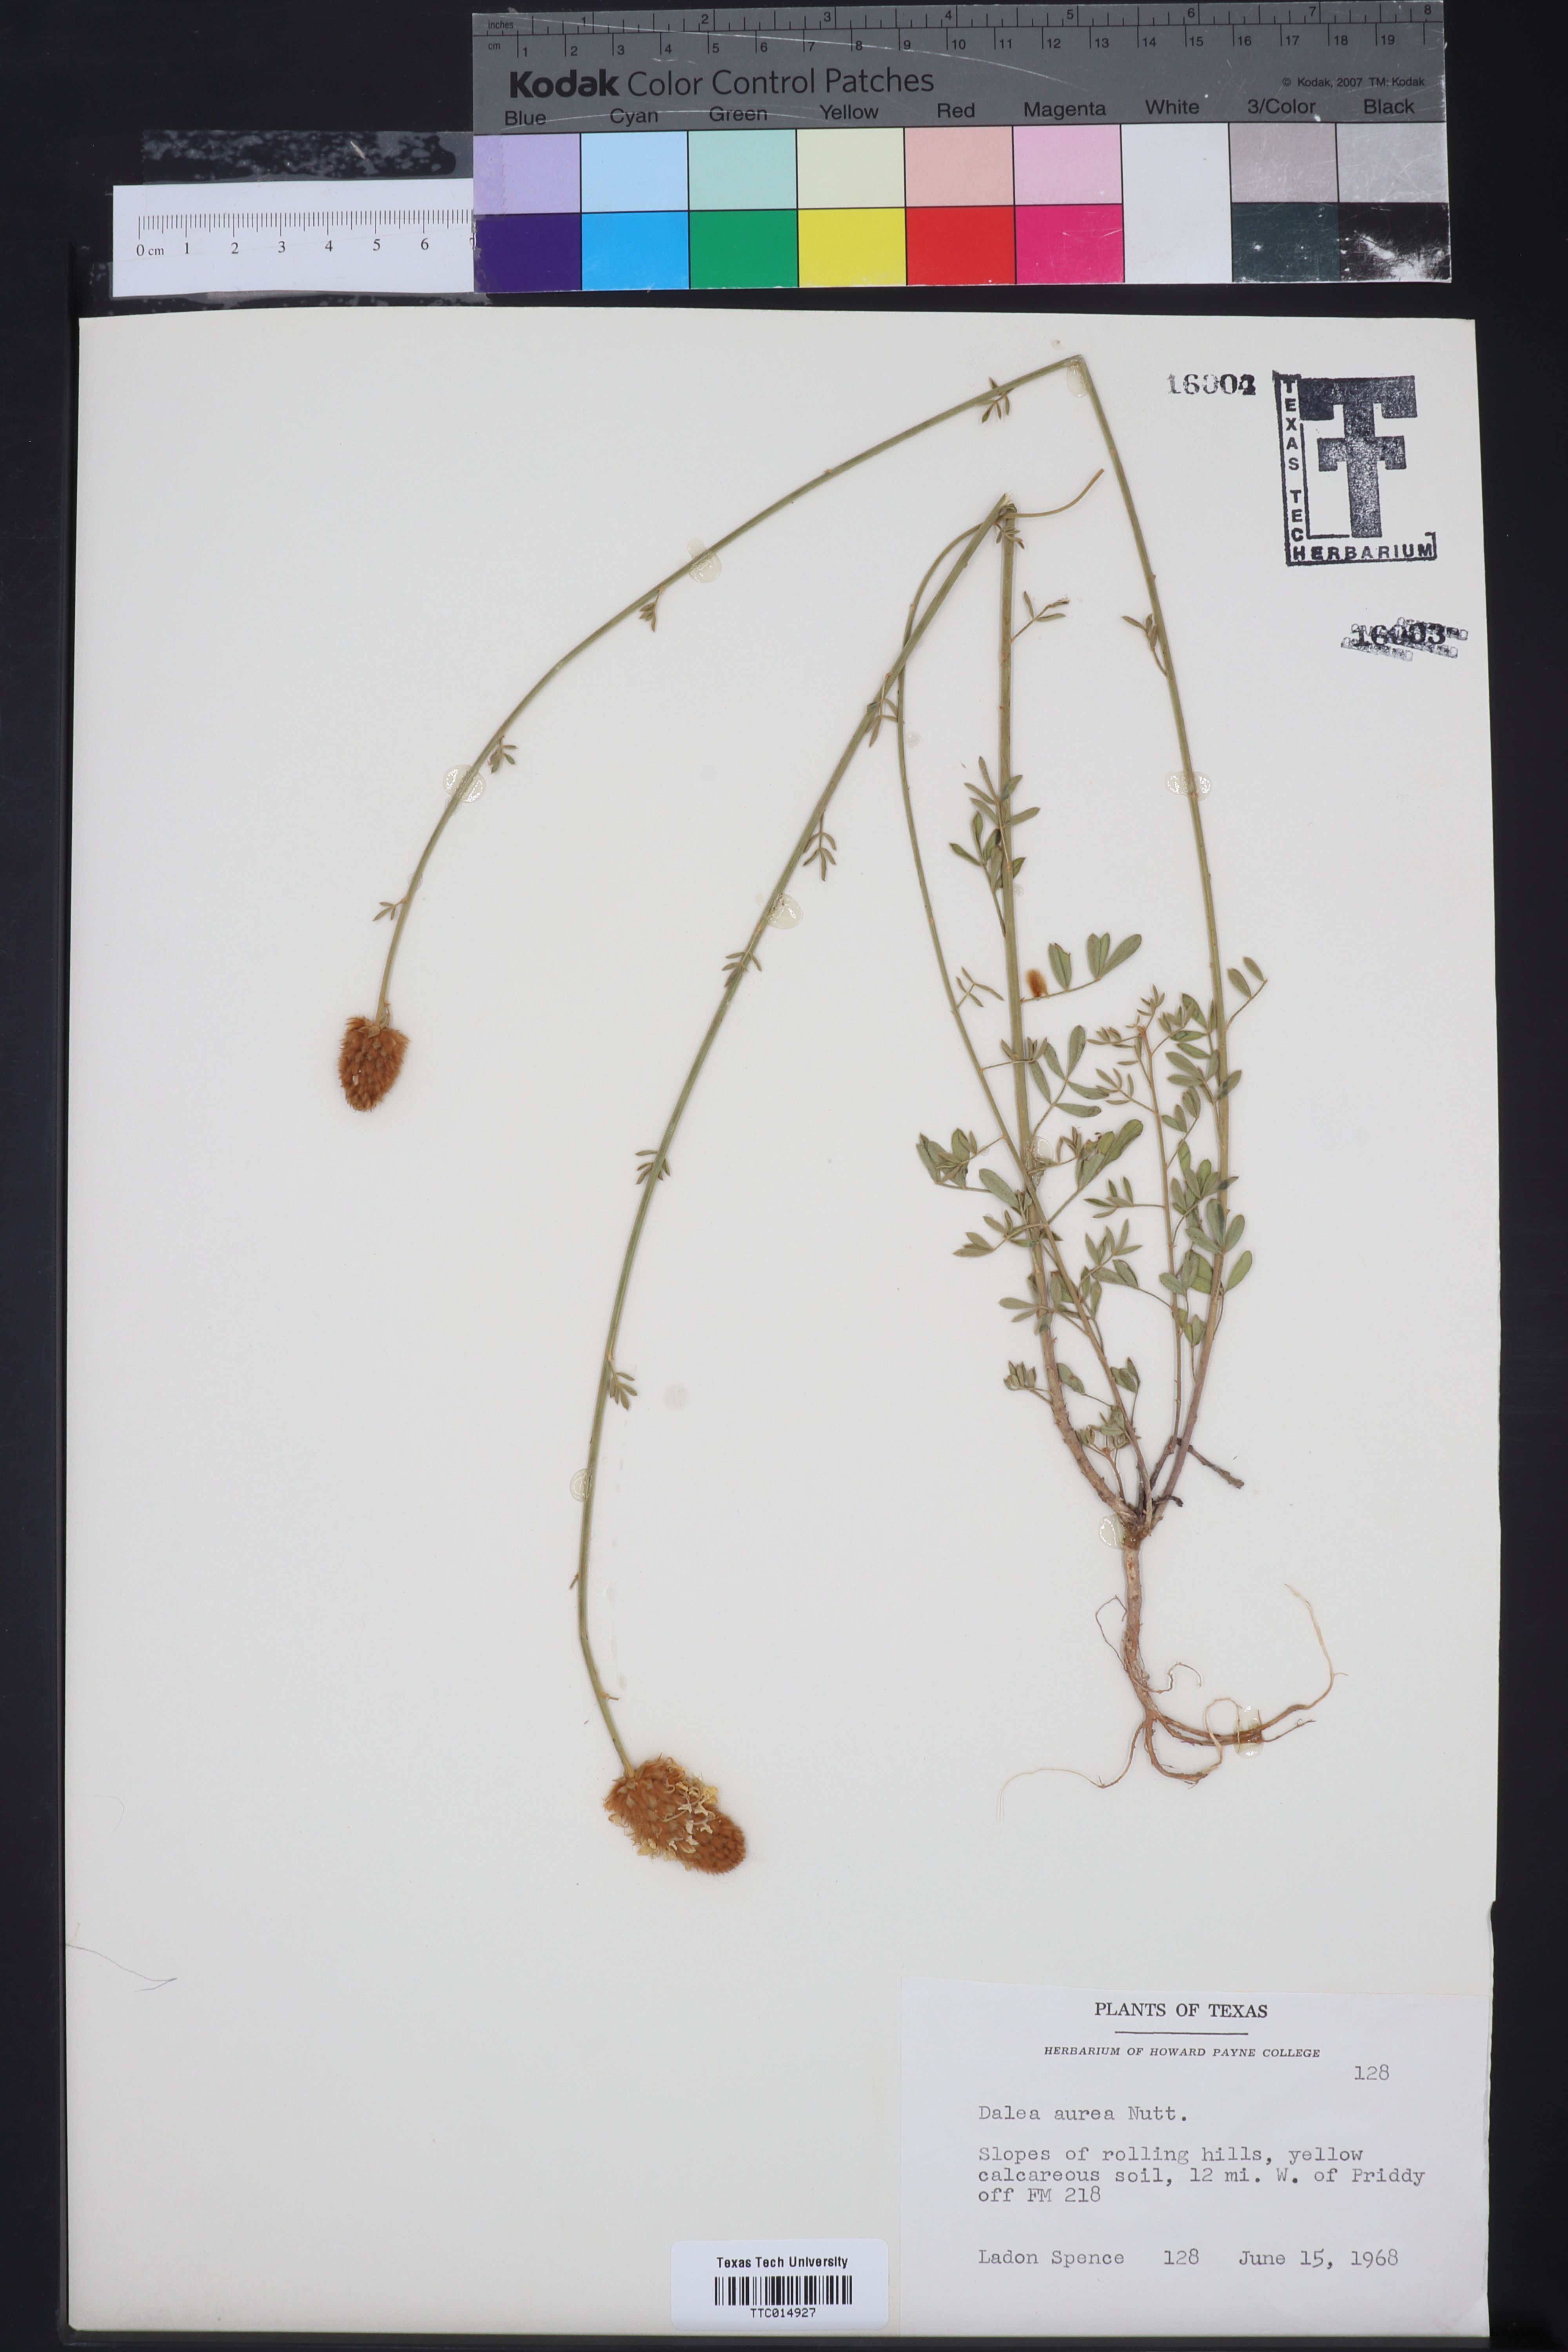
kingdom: Plantae
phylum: Tracheophyta
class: Magnoliopsida
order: Fabales
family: Fabaceae
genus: Dalea
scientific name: Dalea aurea
